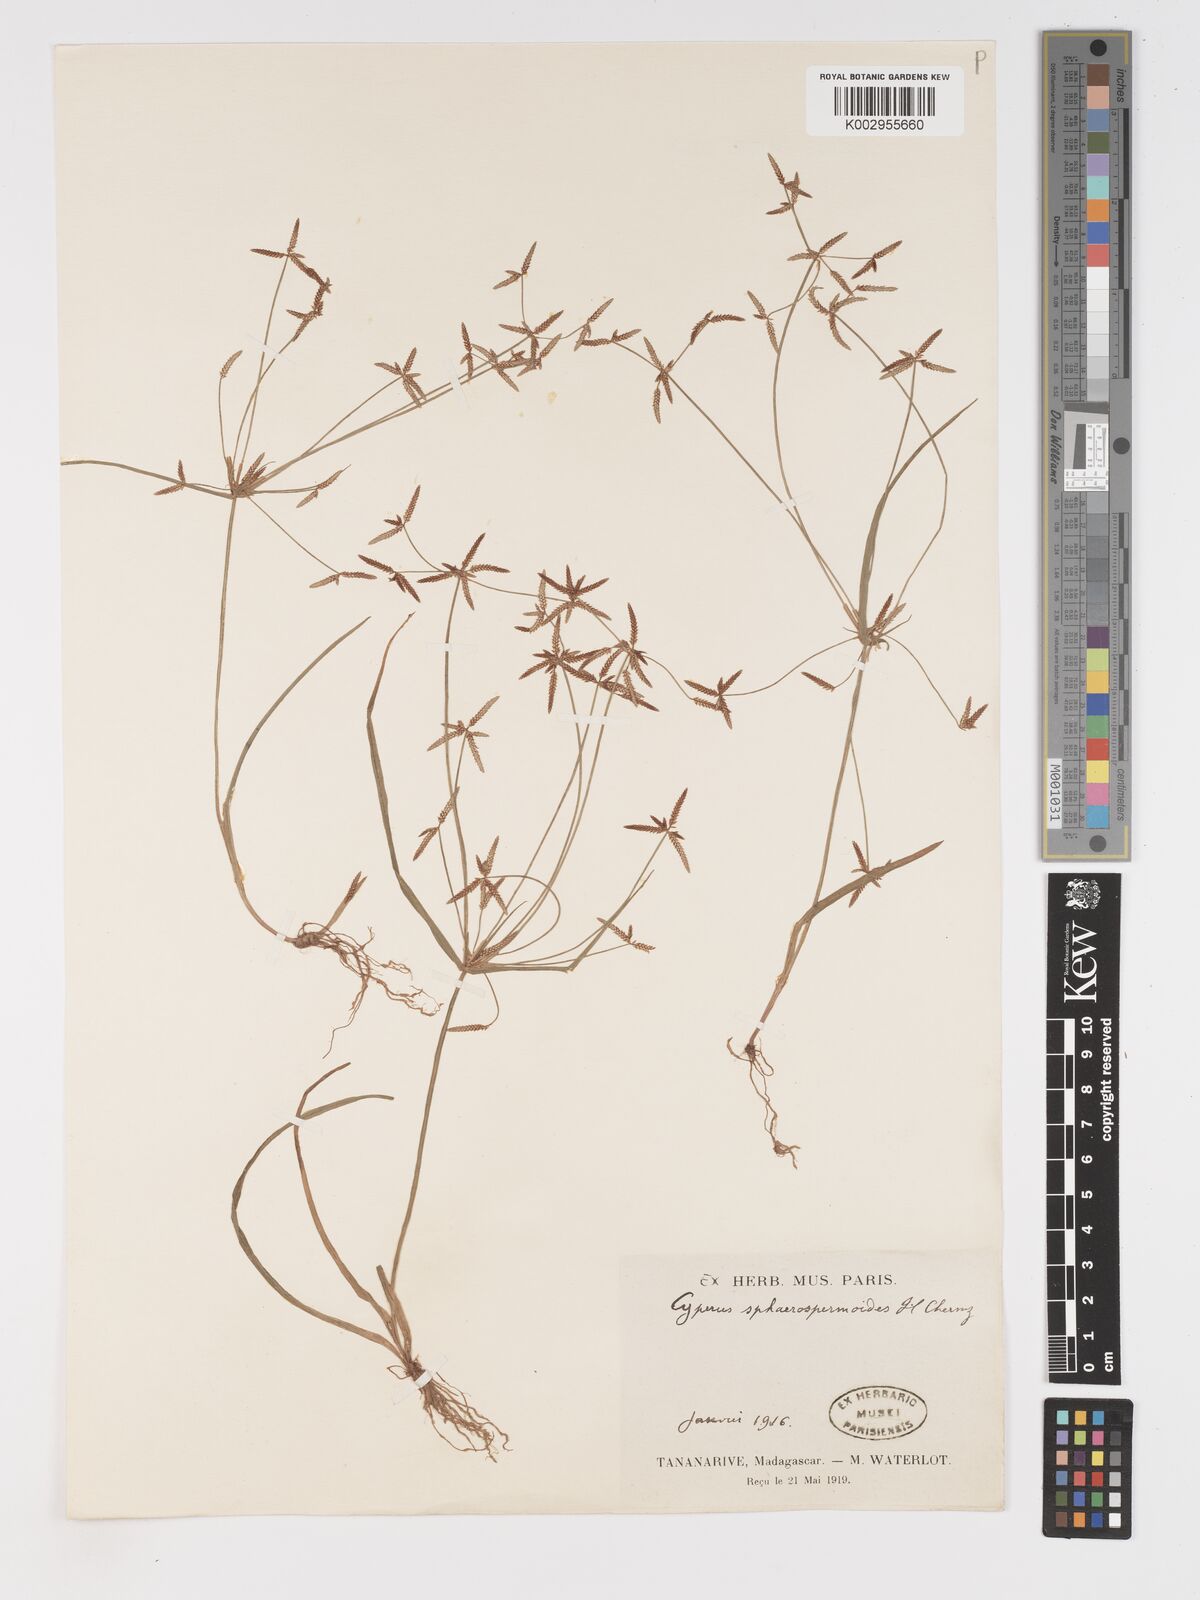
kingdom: Plantae
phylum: Tracheophyta
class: Liliopsida
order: Poales
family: Cyperaceae
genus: Cyperus
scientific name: Cyperus denudatus
